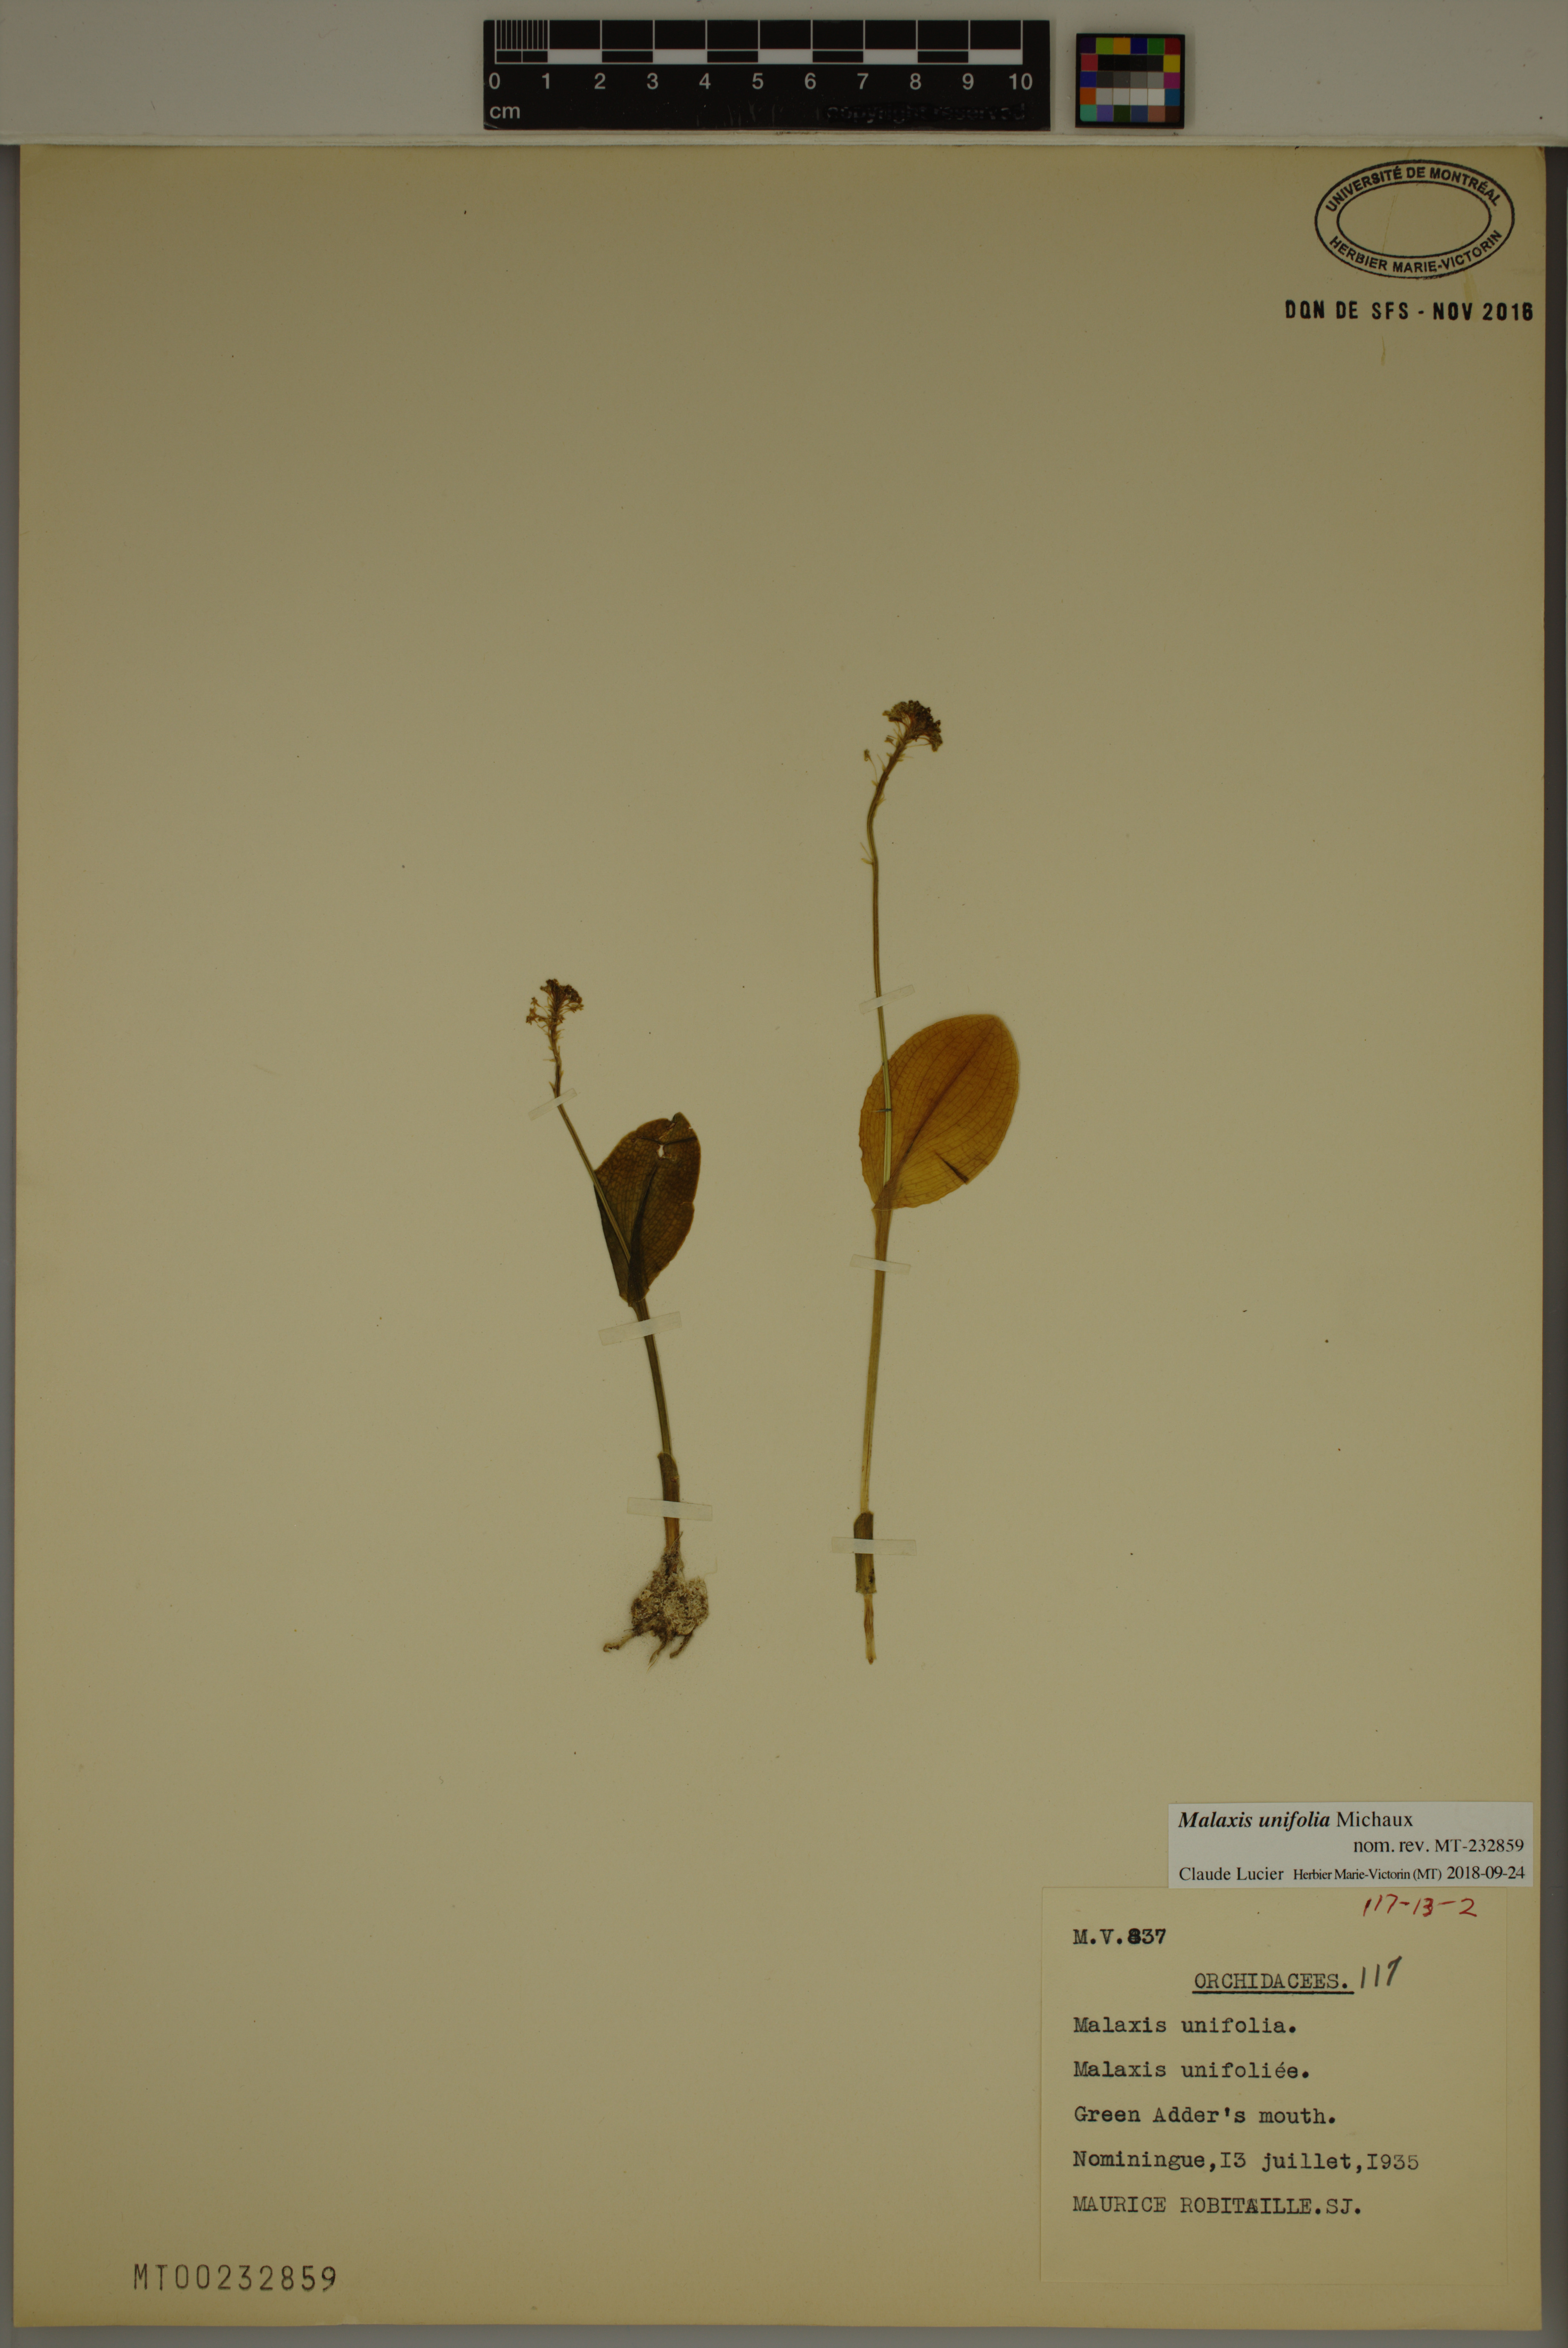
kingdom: Plantae
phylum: Tracheophyta
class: Liliopsida
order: Asparagales
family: Orchidaceae
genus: Malaxis
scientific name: Malaxis unifolia
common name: Green adder's-mouth
